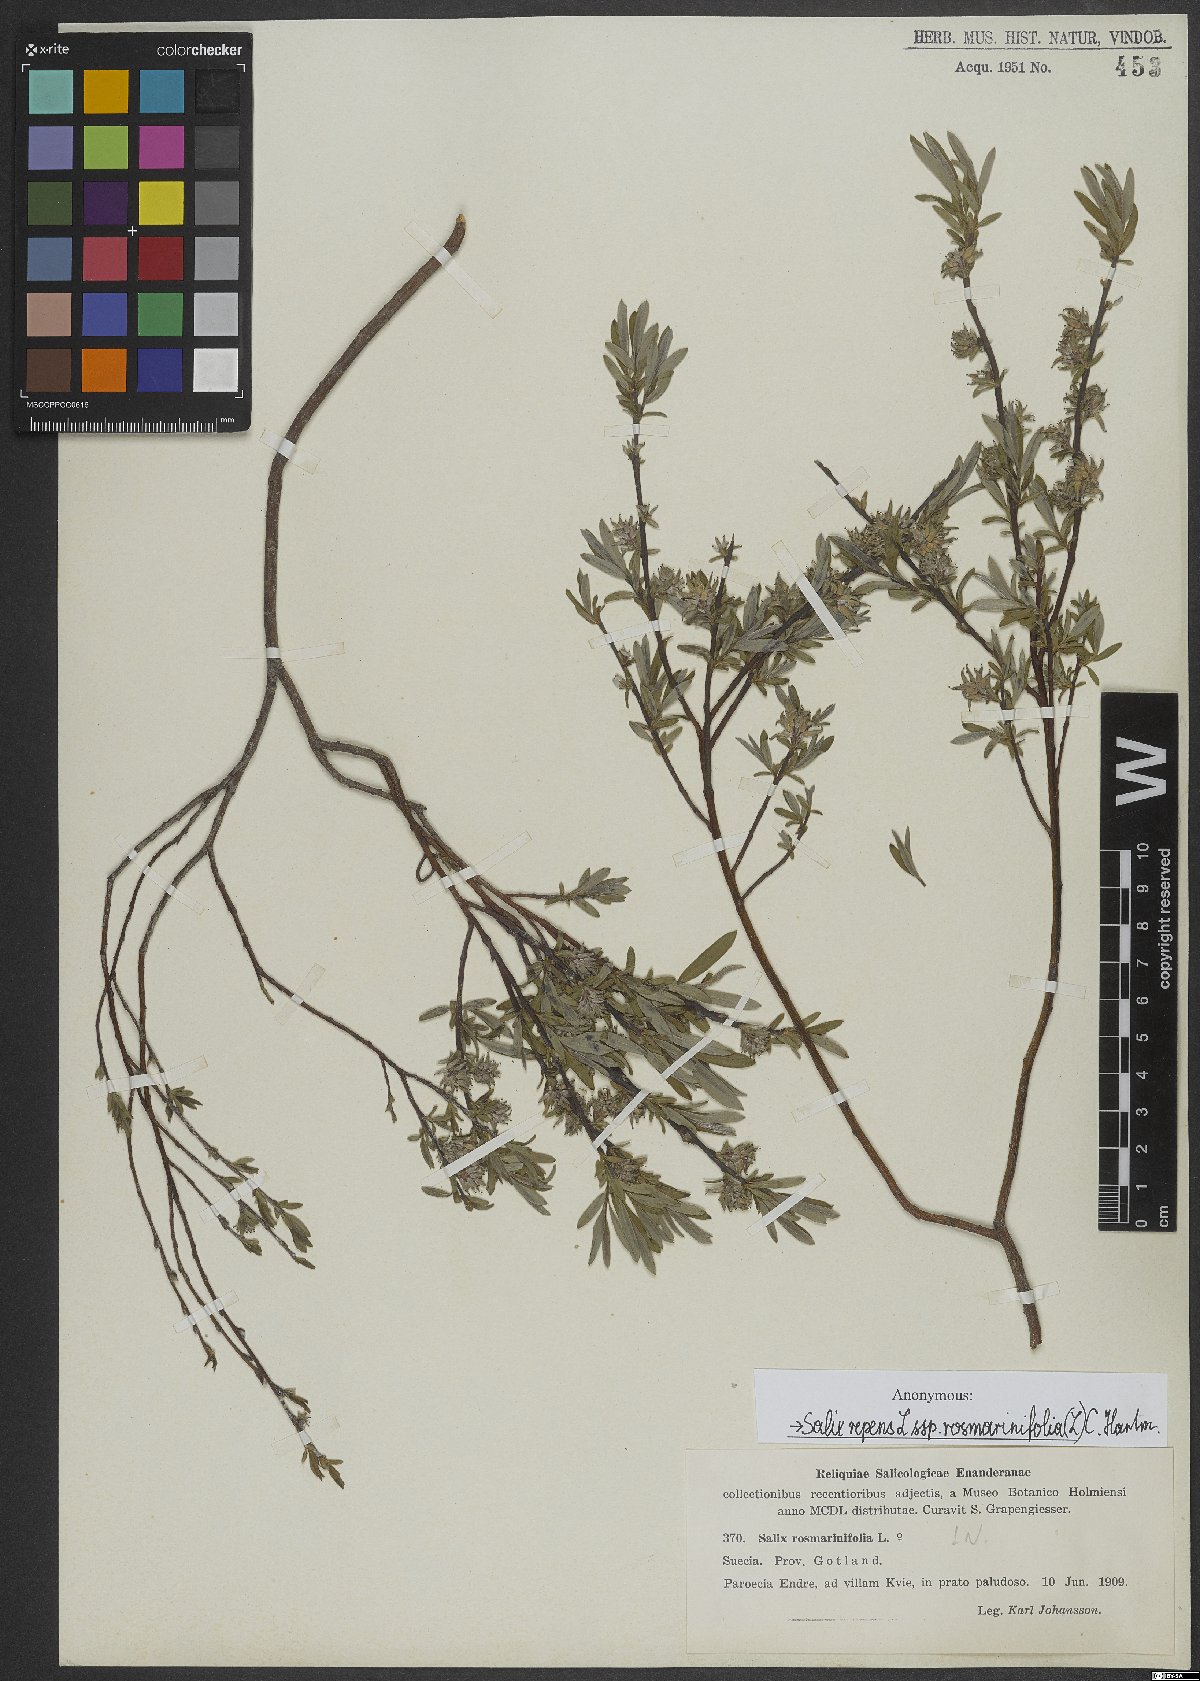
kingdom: Plantae
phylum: Tracheophyta
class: Magnoliopsida
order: Malpighiales
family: Salicaceae
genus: Salix
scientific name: Salix repens
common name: Creeping willow
